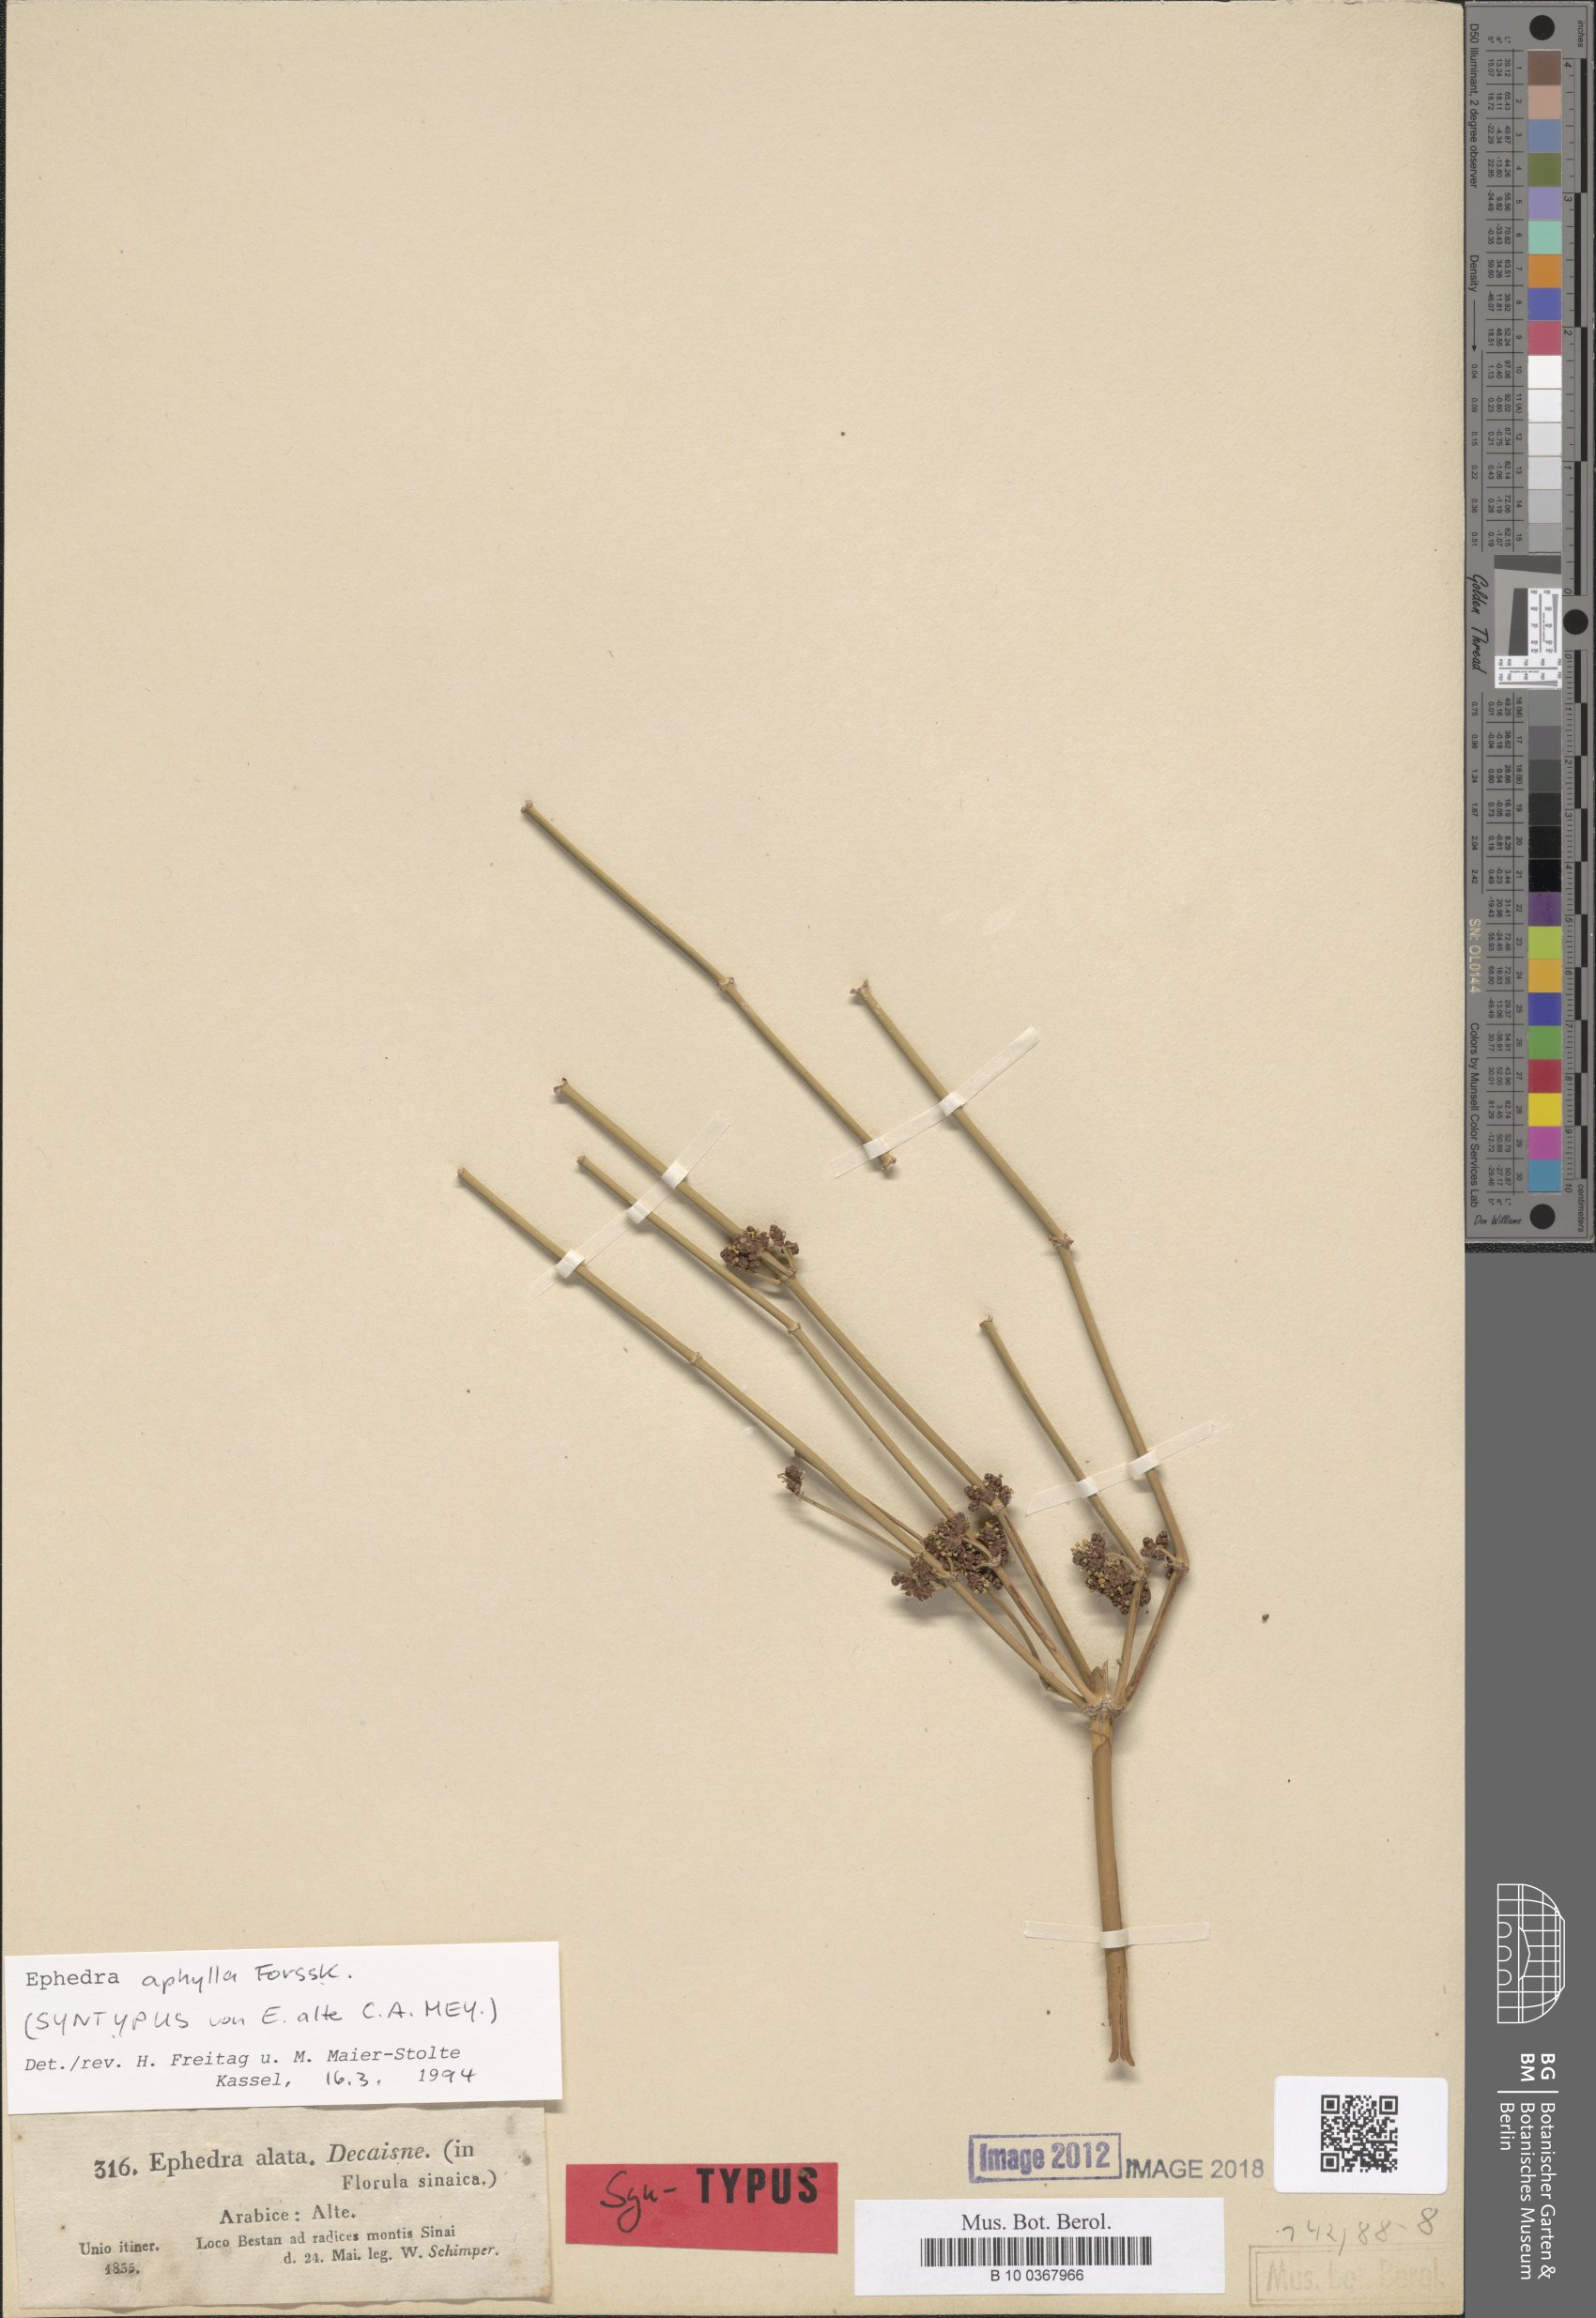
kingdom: Plantae
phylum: Tracheophyta
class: Gnetopsida
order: Ephedrales
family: Ephedraceae
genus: Ephedra
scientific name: Ephedra aphylla
